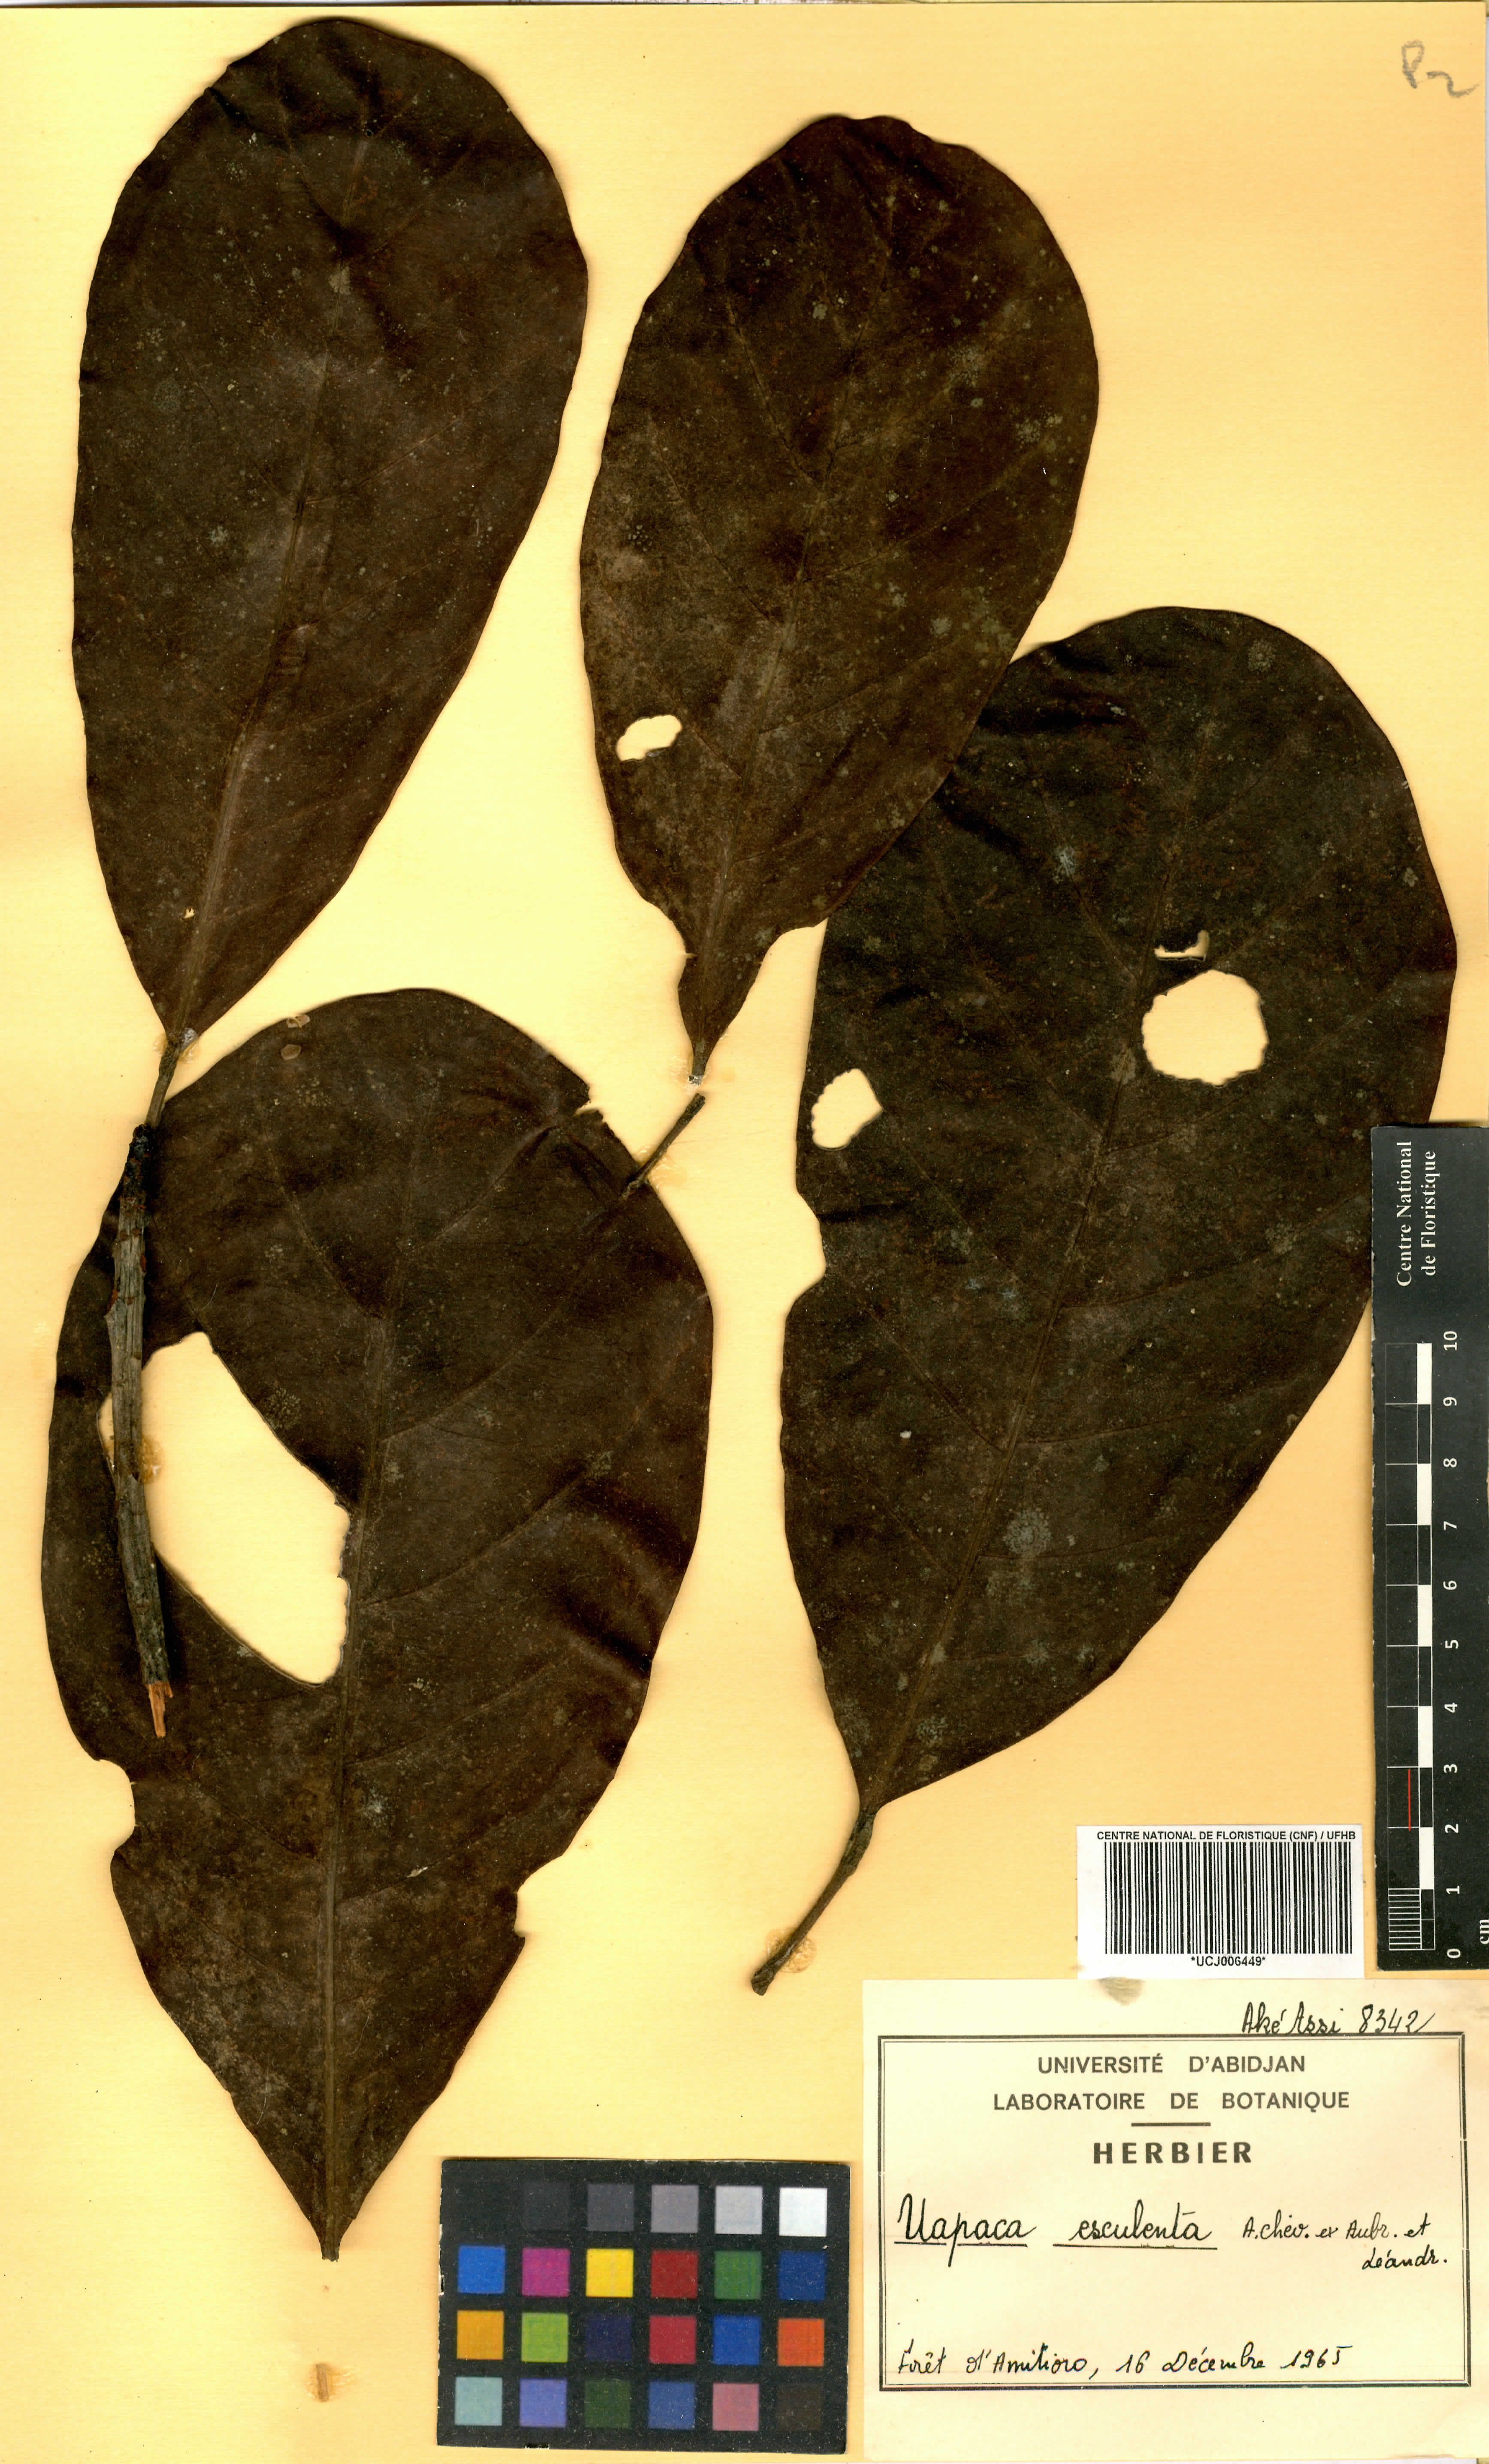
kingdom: Plantae
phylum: Tracheophyta
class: Magnoliopsida
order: Malpighiales
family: Phyllanthaceae
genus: Uapaca
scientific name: Uapaca pynaertii
